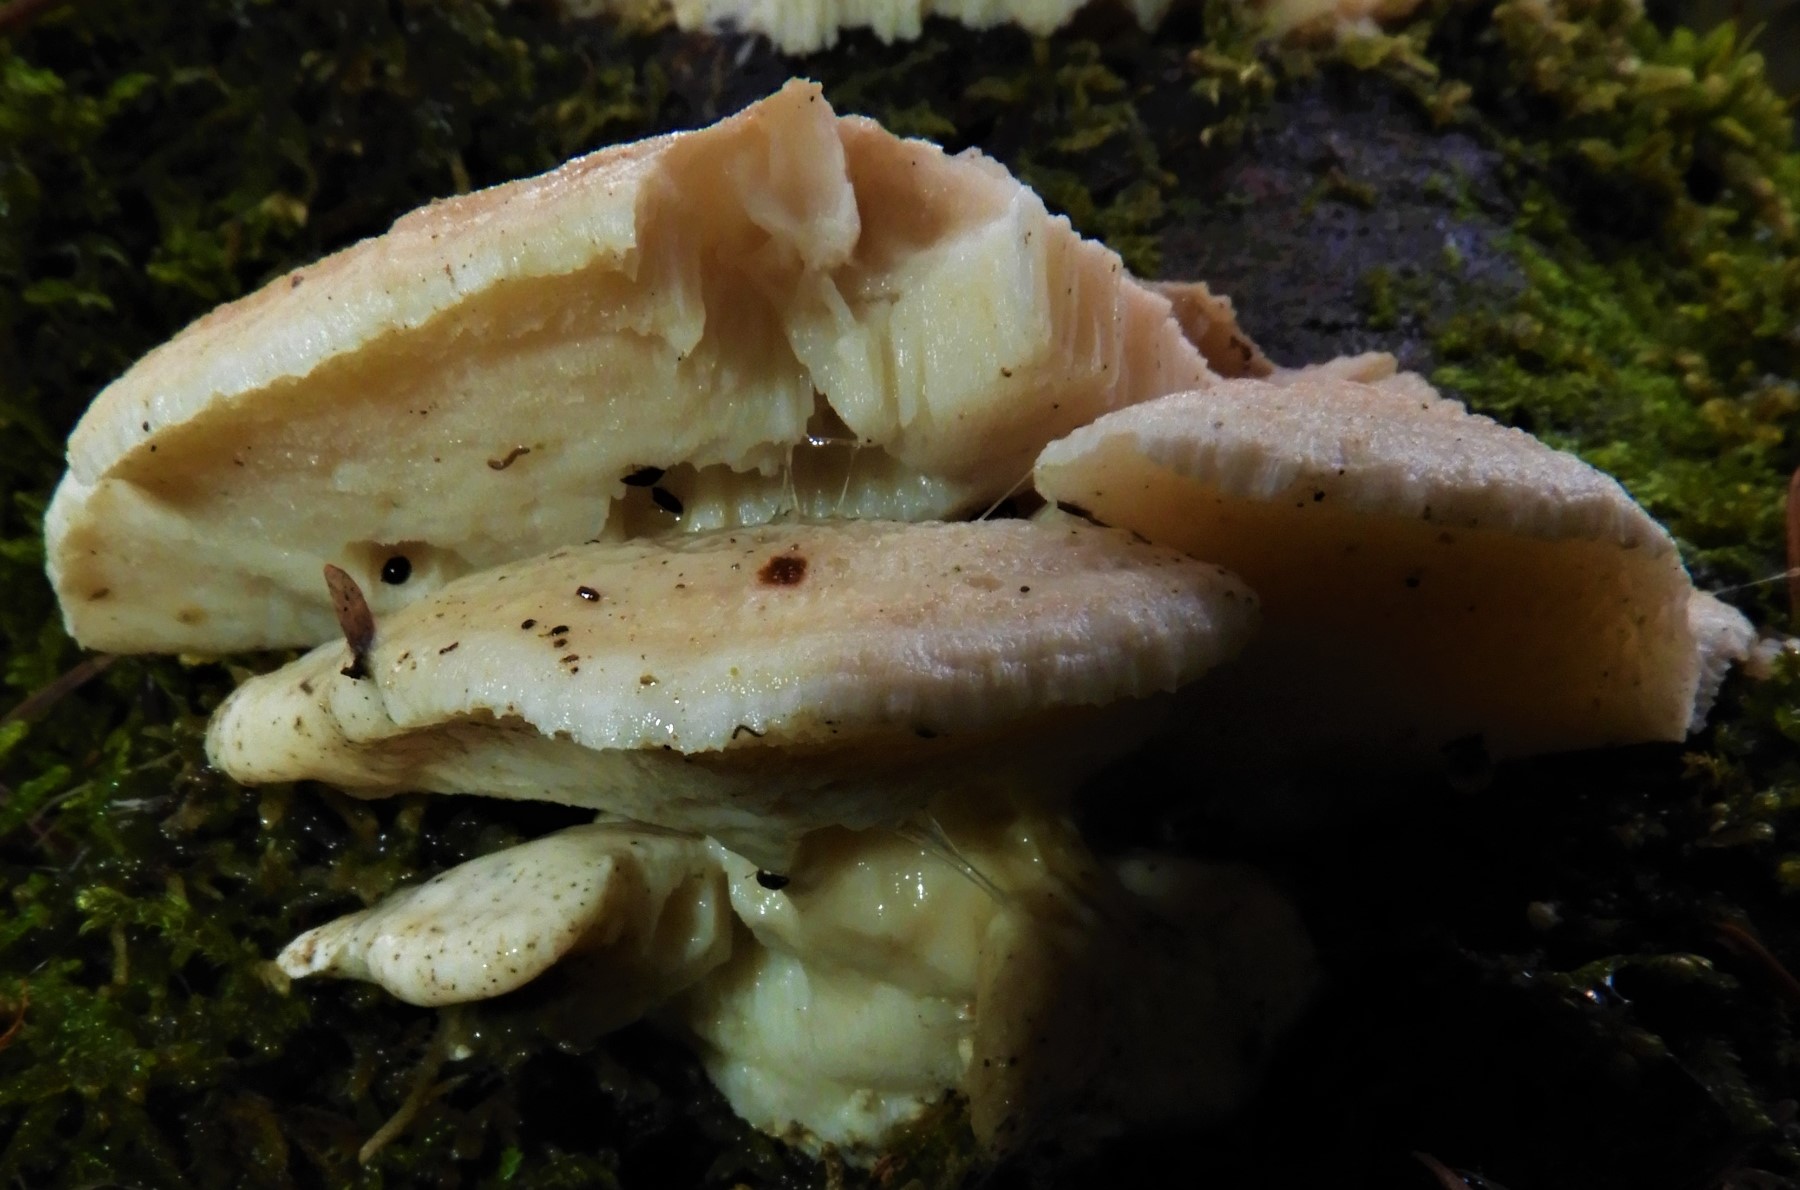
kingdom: Fungi
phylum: Basidiomycota
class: Agaricomycetes
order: Polyporales
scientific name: Polyporales
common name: poresvampordenen
